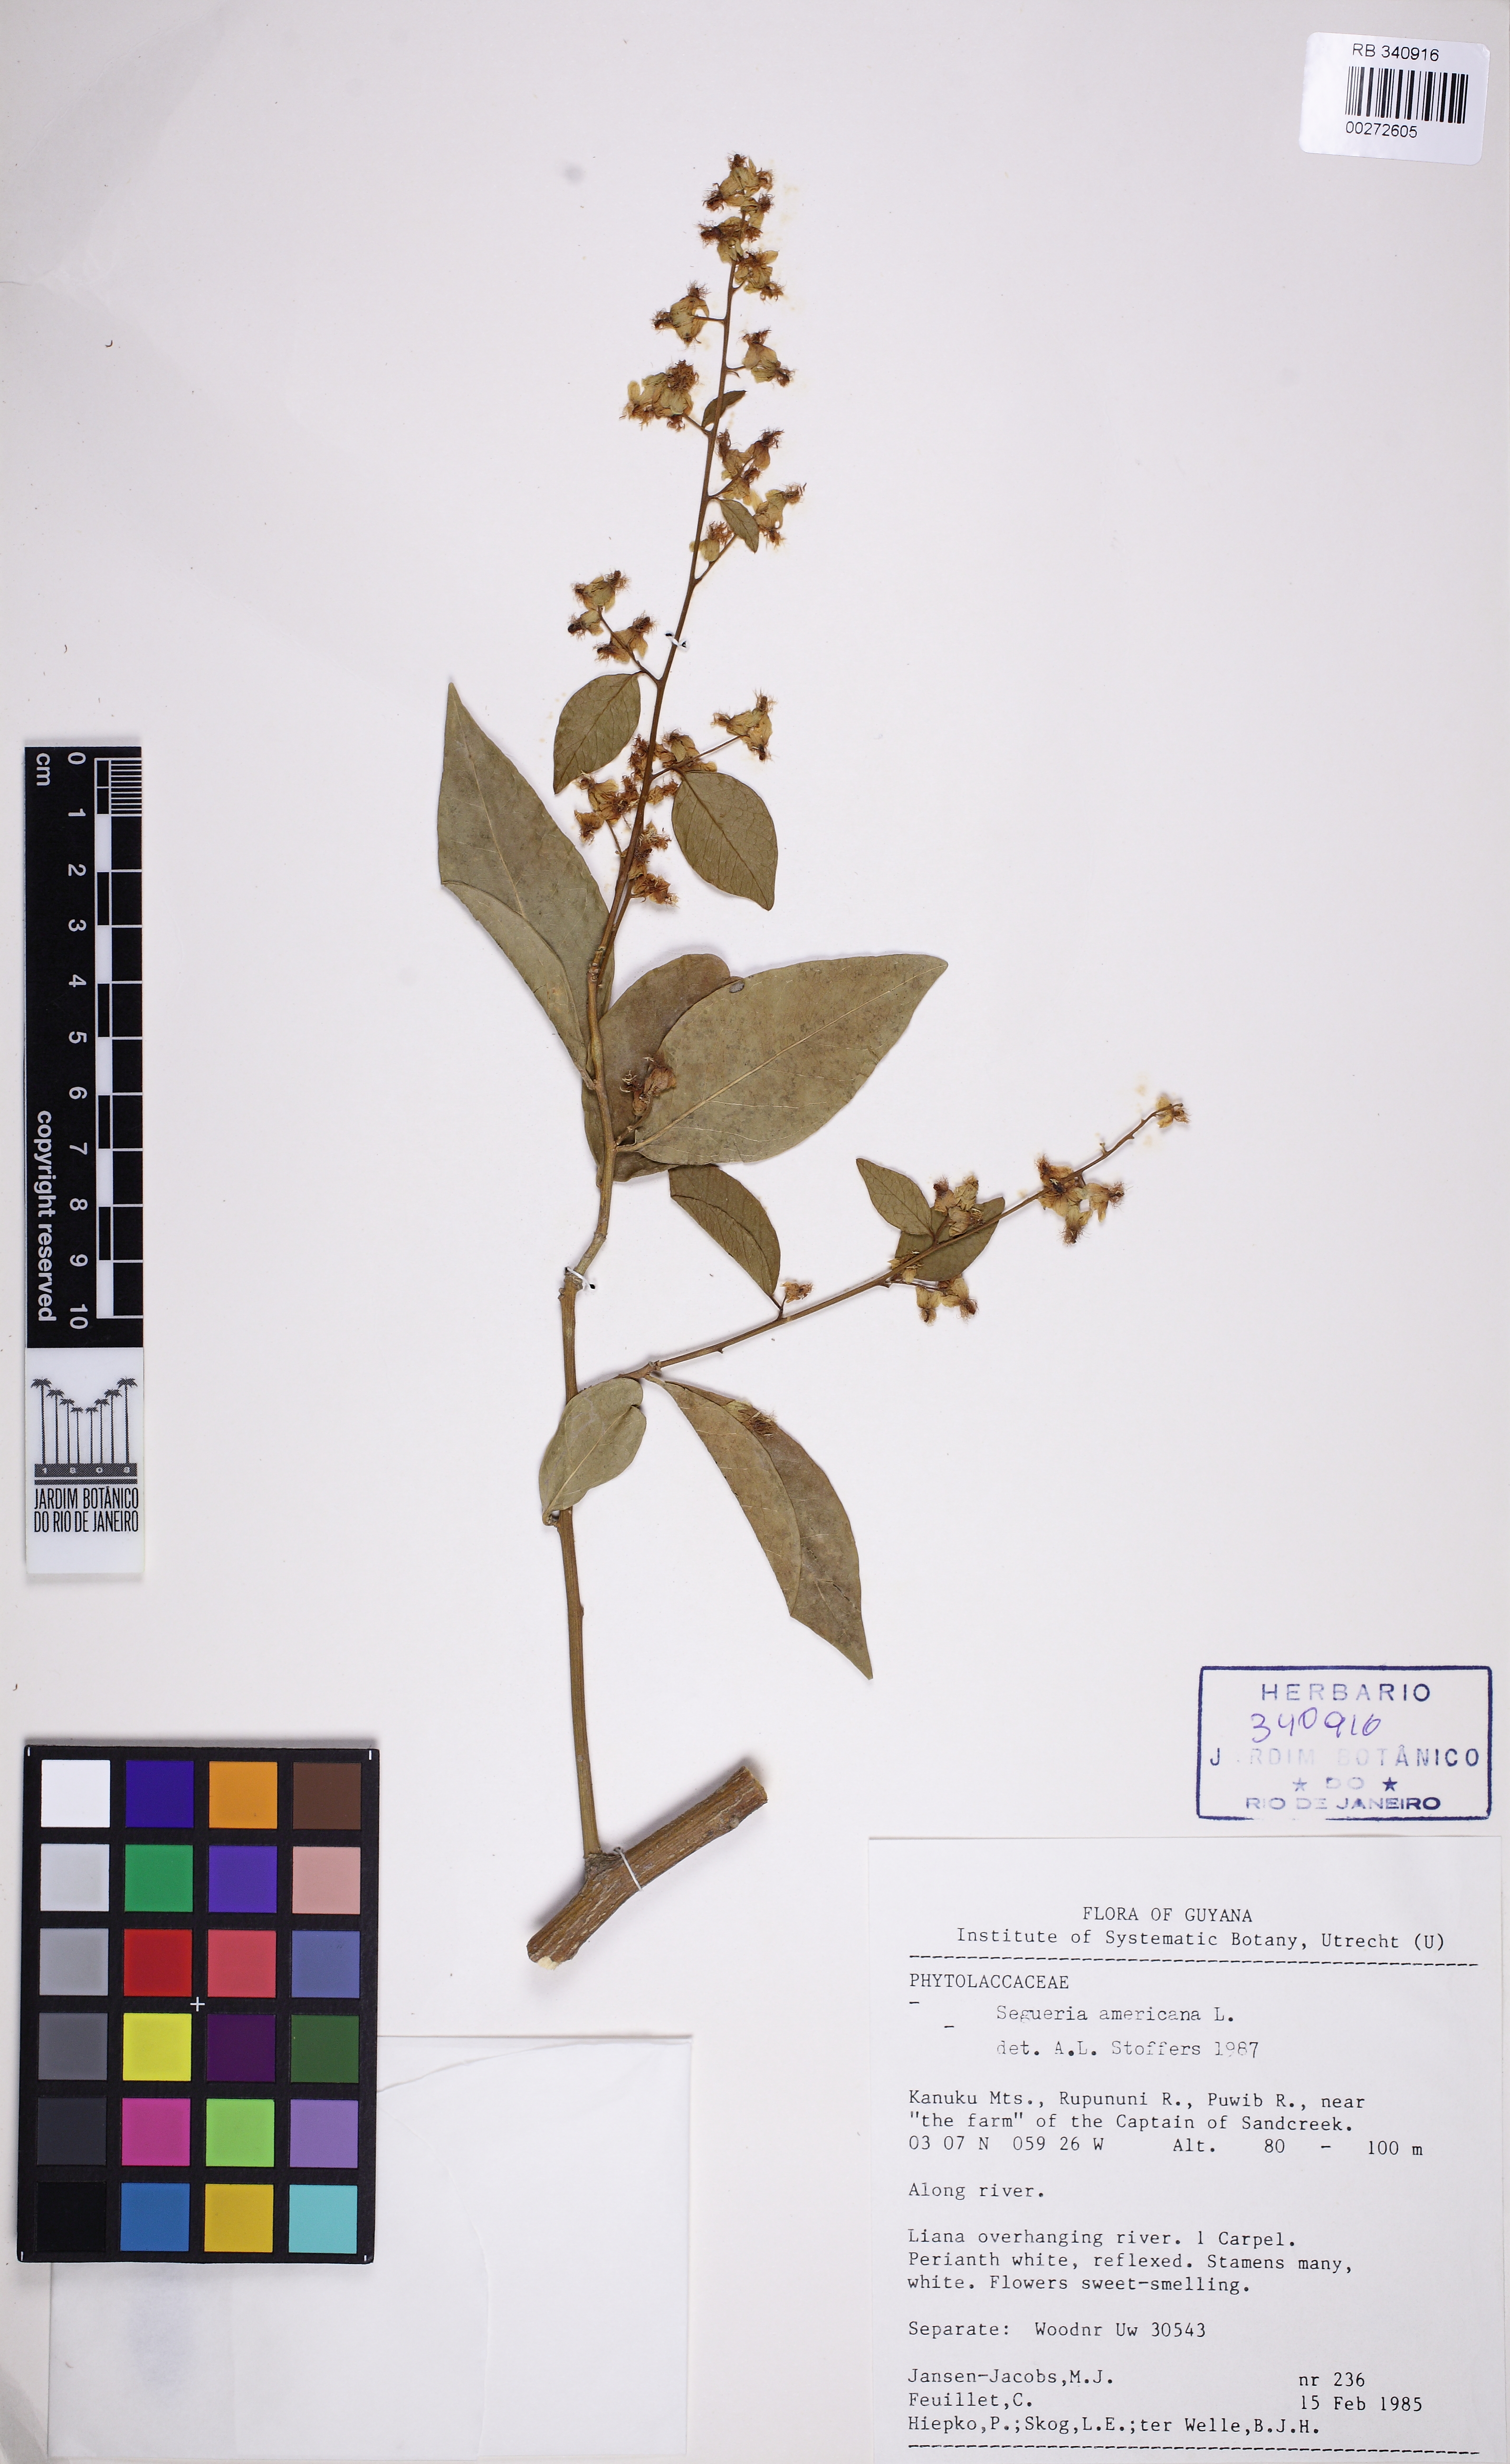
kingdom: Plantae
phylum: Tracheophyta
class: Magnoliopsida
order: Caryophyllales
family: Phytolaccaceae
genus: Seguieria
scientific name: Seguieria americana
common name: American seguieria
